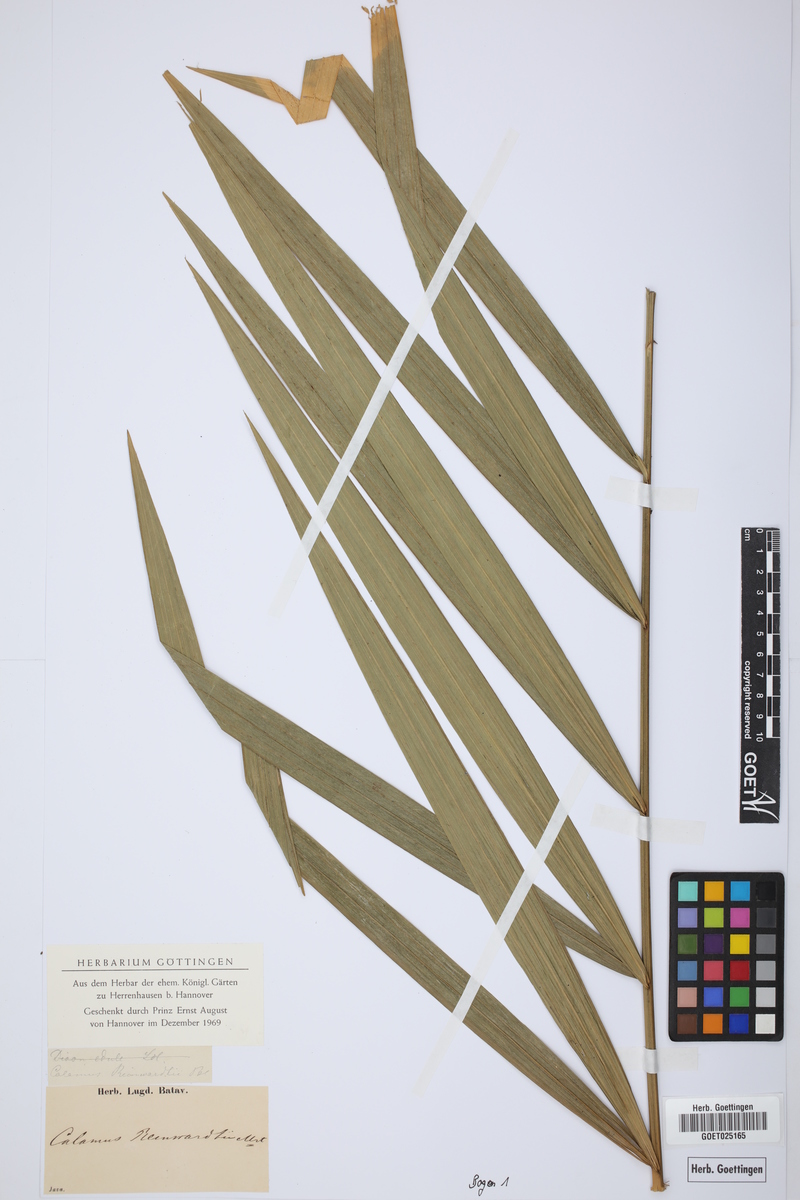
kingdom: Plantae
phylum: Tracheophyta
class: Liliopsida
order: Arecales
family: Arecaceae
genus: Calamus
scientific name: Calamus reinwardtii
